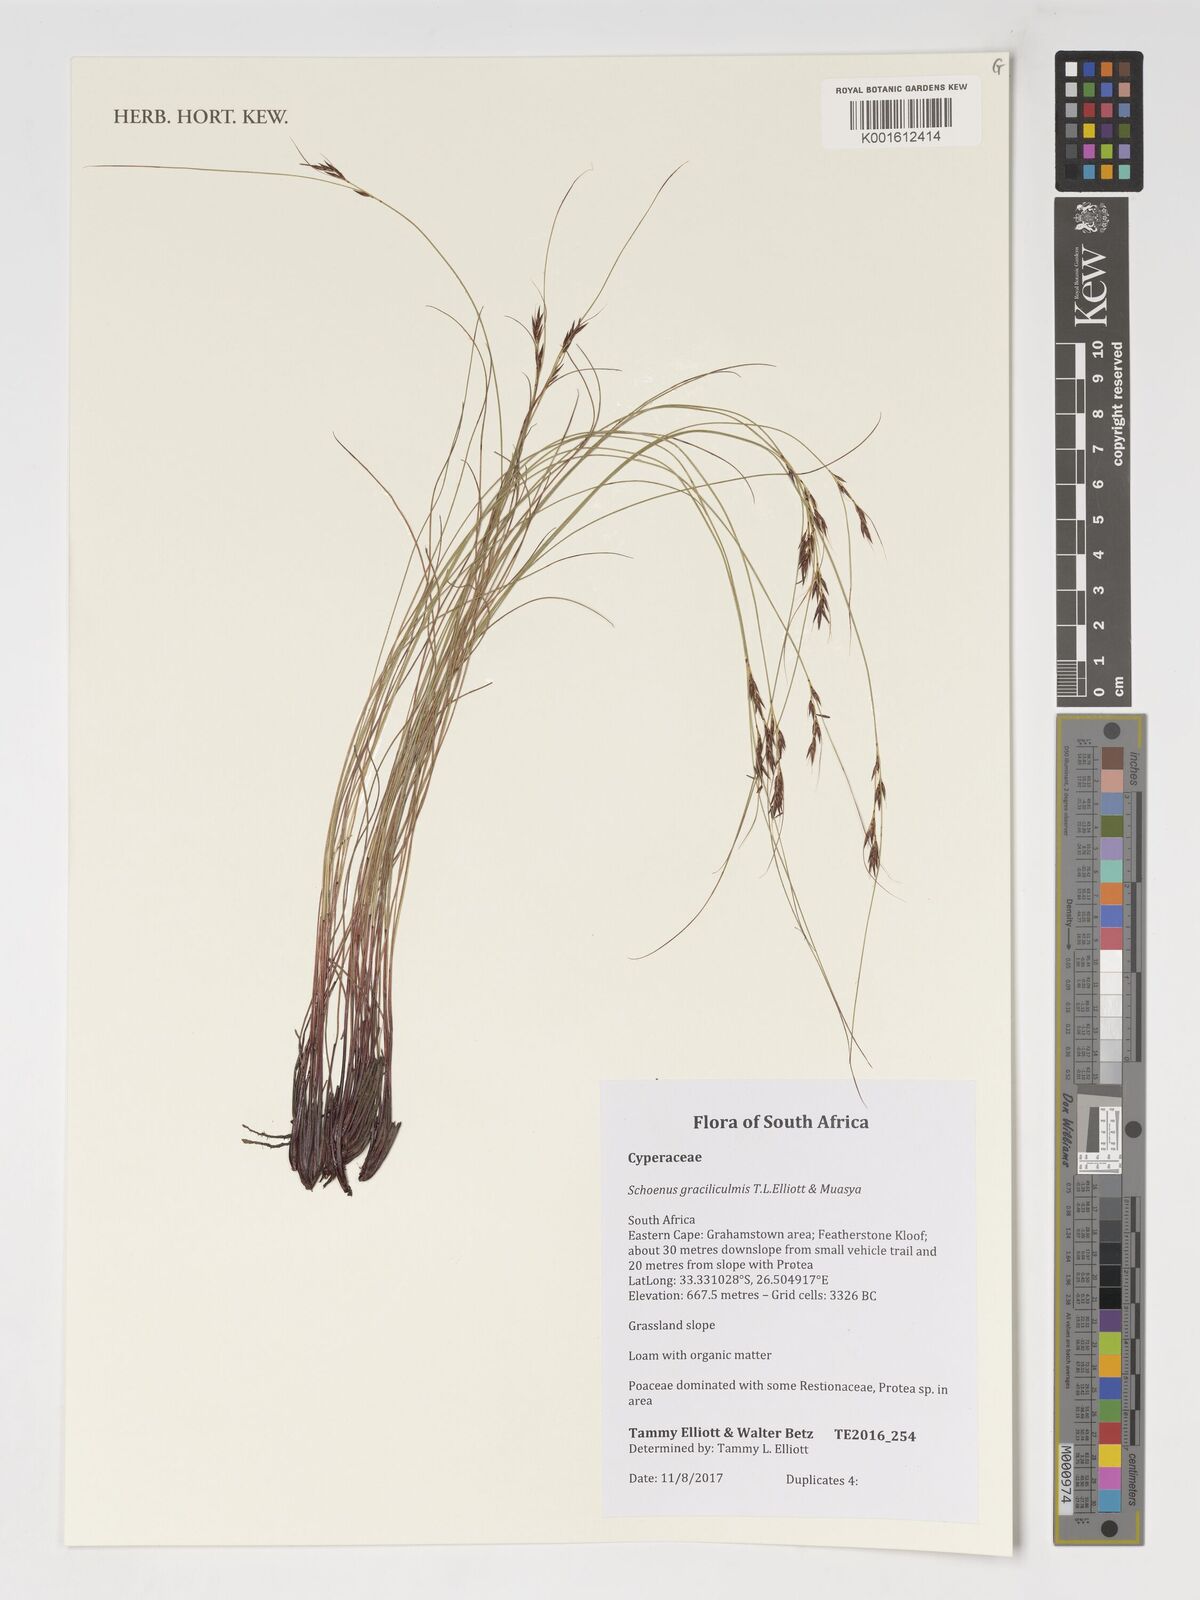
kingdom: Plantae
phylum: Tracheophyta
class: Liliopsida
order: Poales
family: Cyperaceae
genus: Schoenus
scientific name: Schoenus
